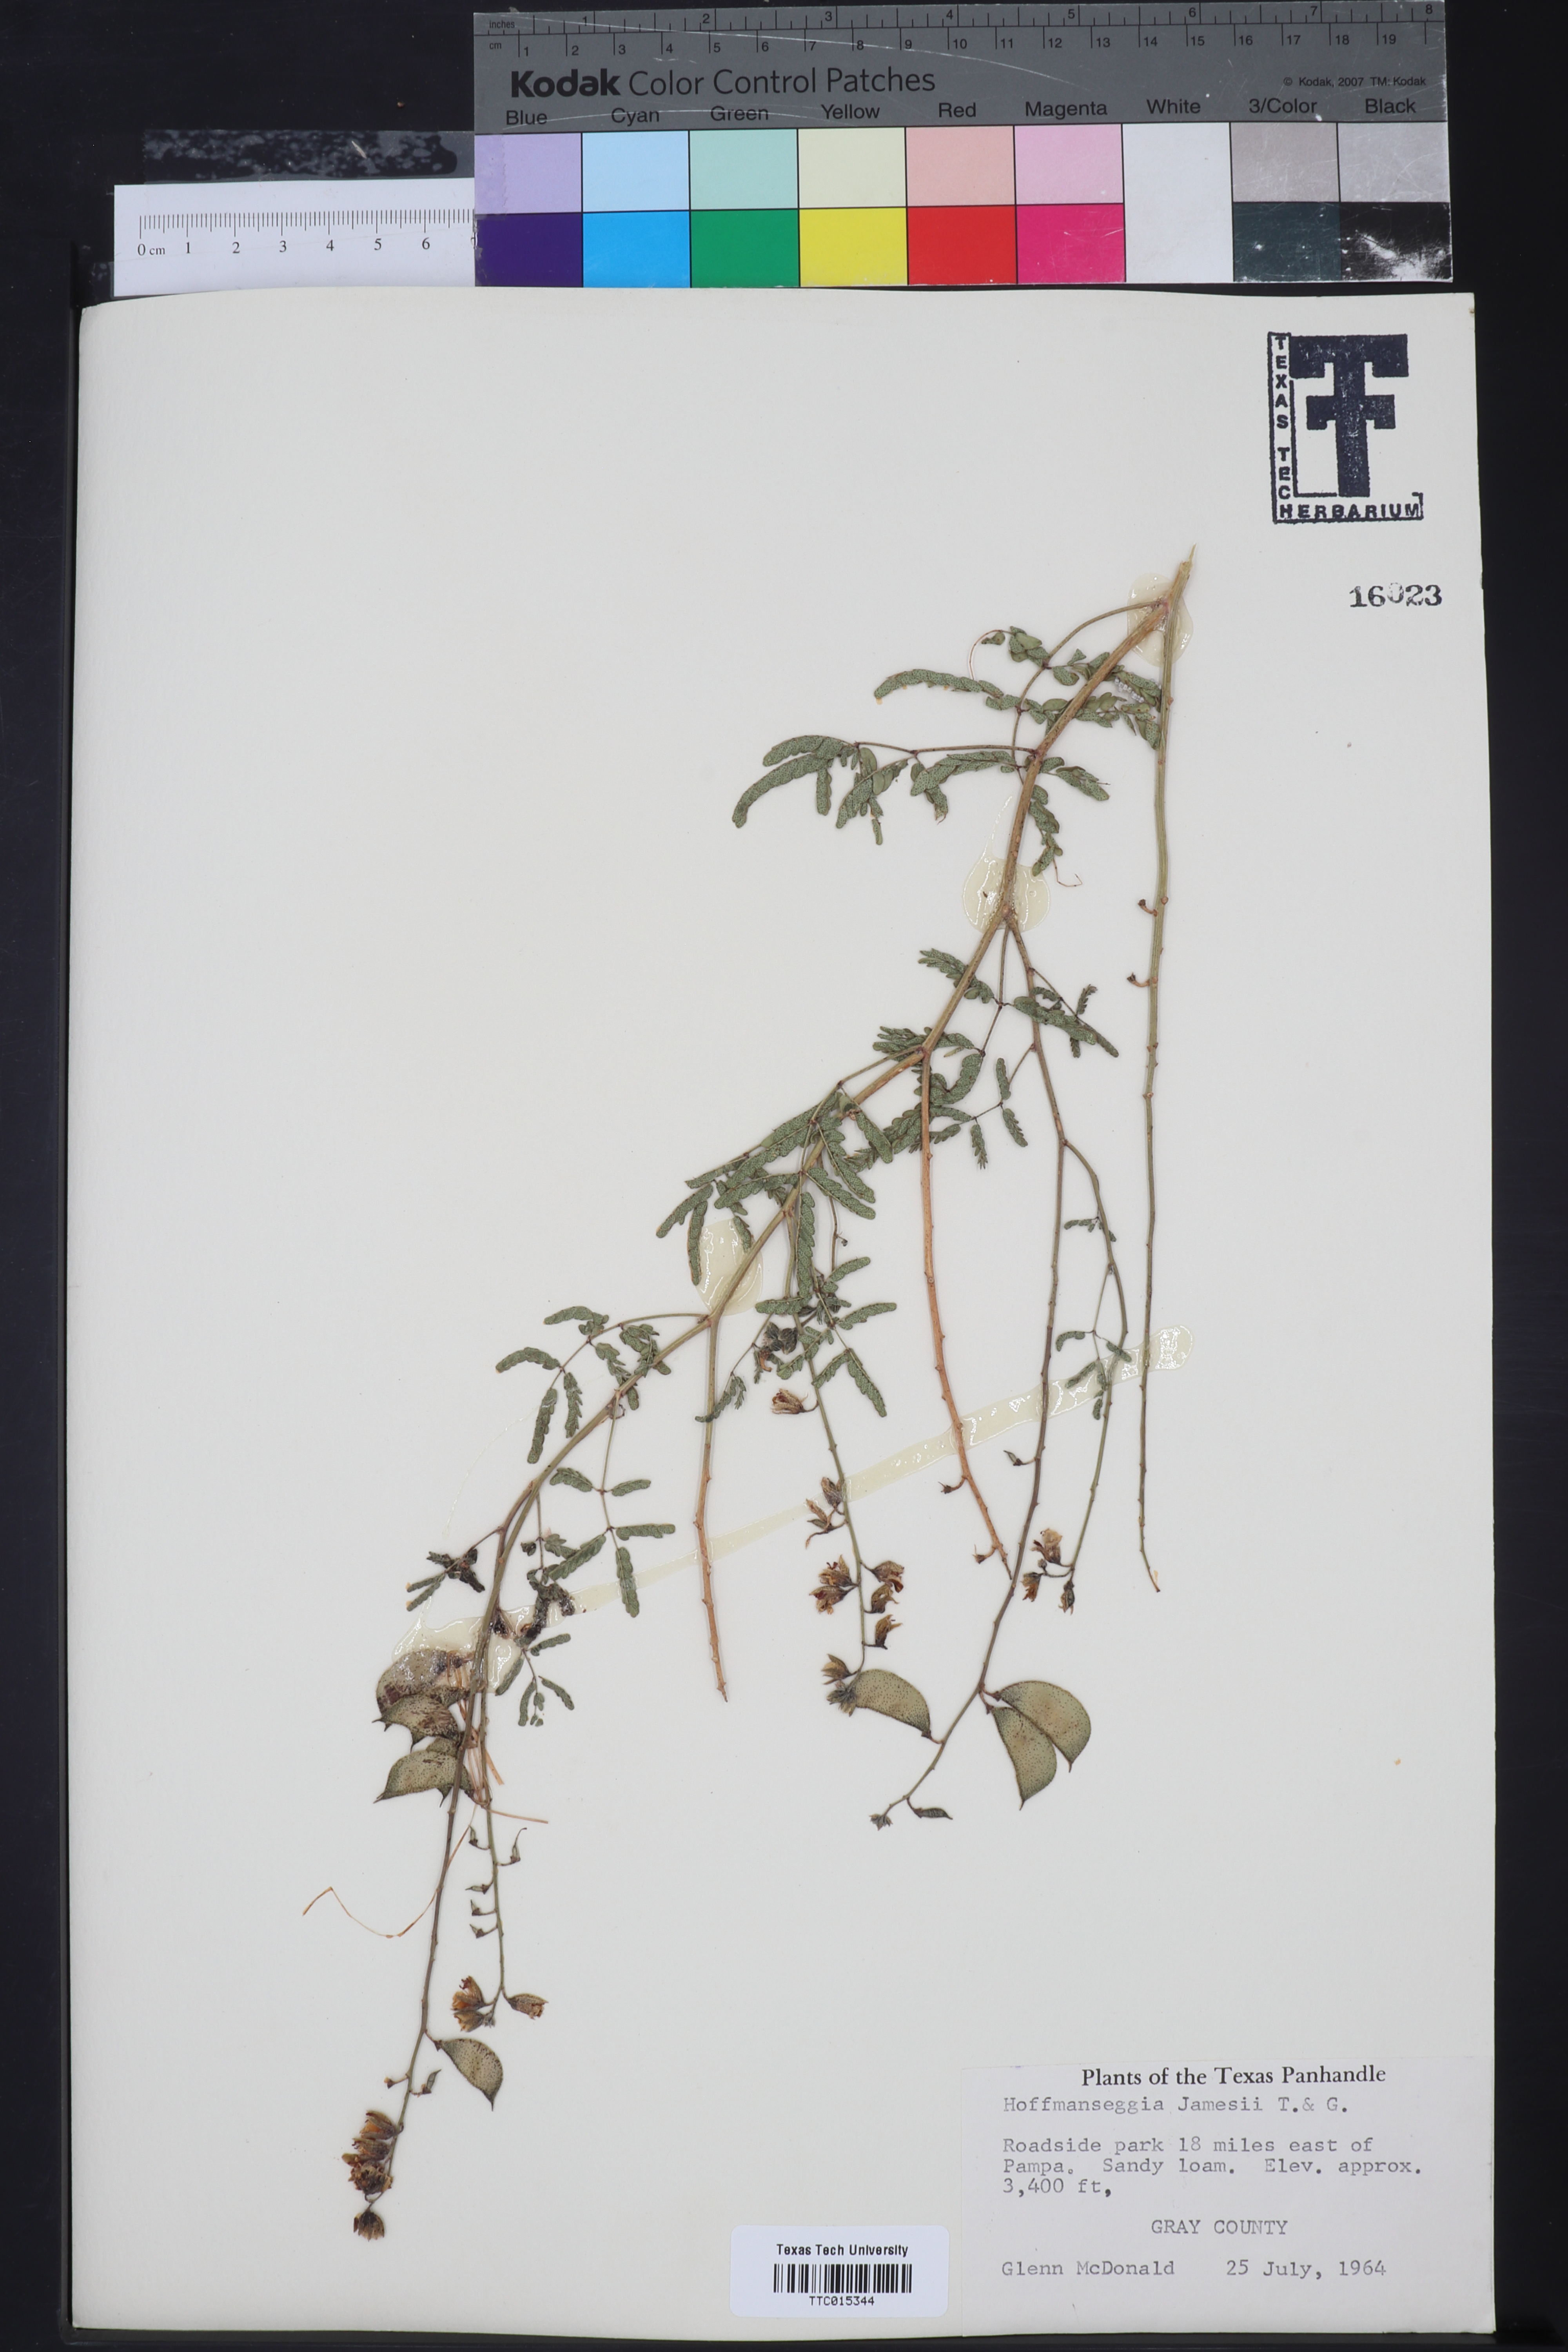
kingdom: Plantae
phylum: Tracheophyta
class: Magnoliopsida
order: Fabales
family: Fabaceae
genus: Pomaria
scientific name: Pomaria jamesii
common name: James' caesalpinia
